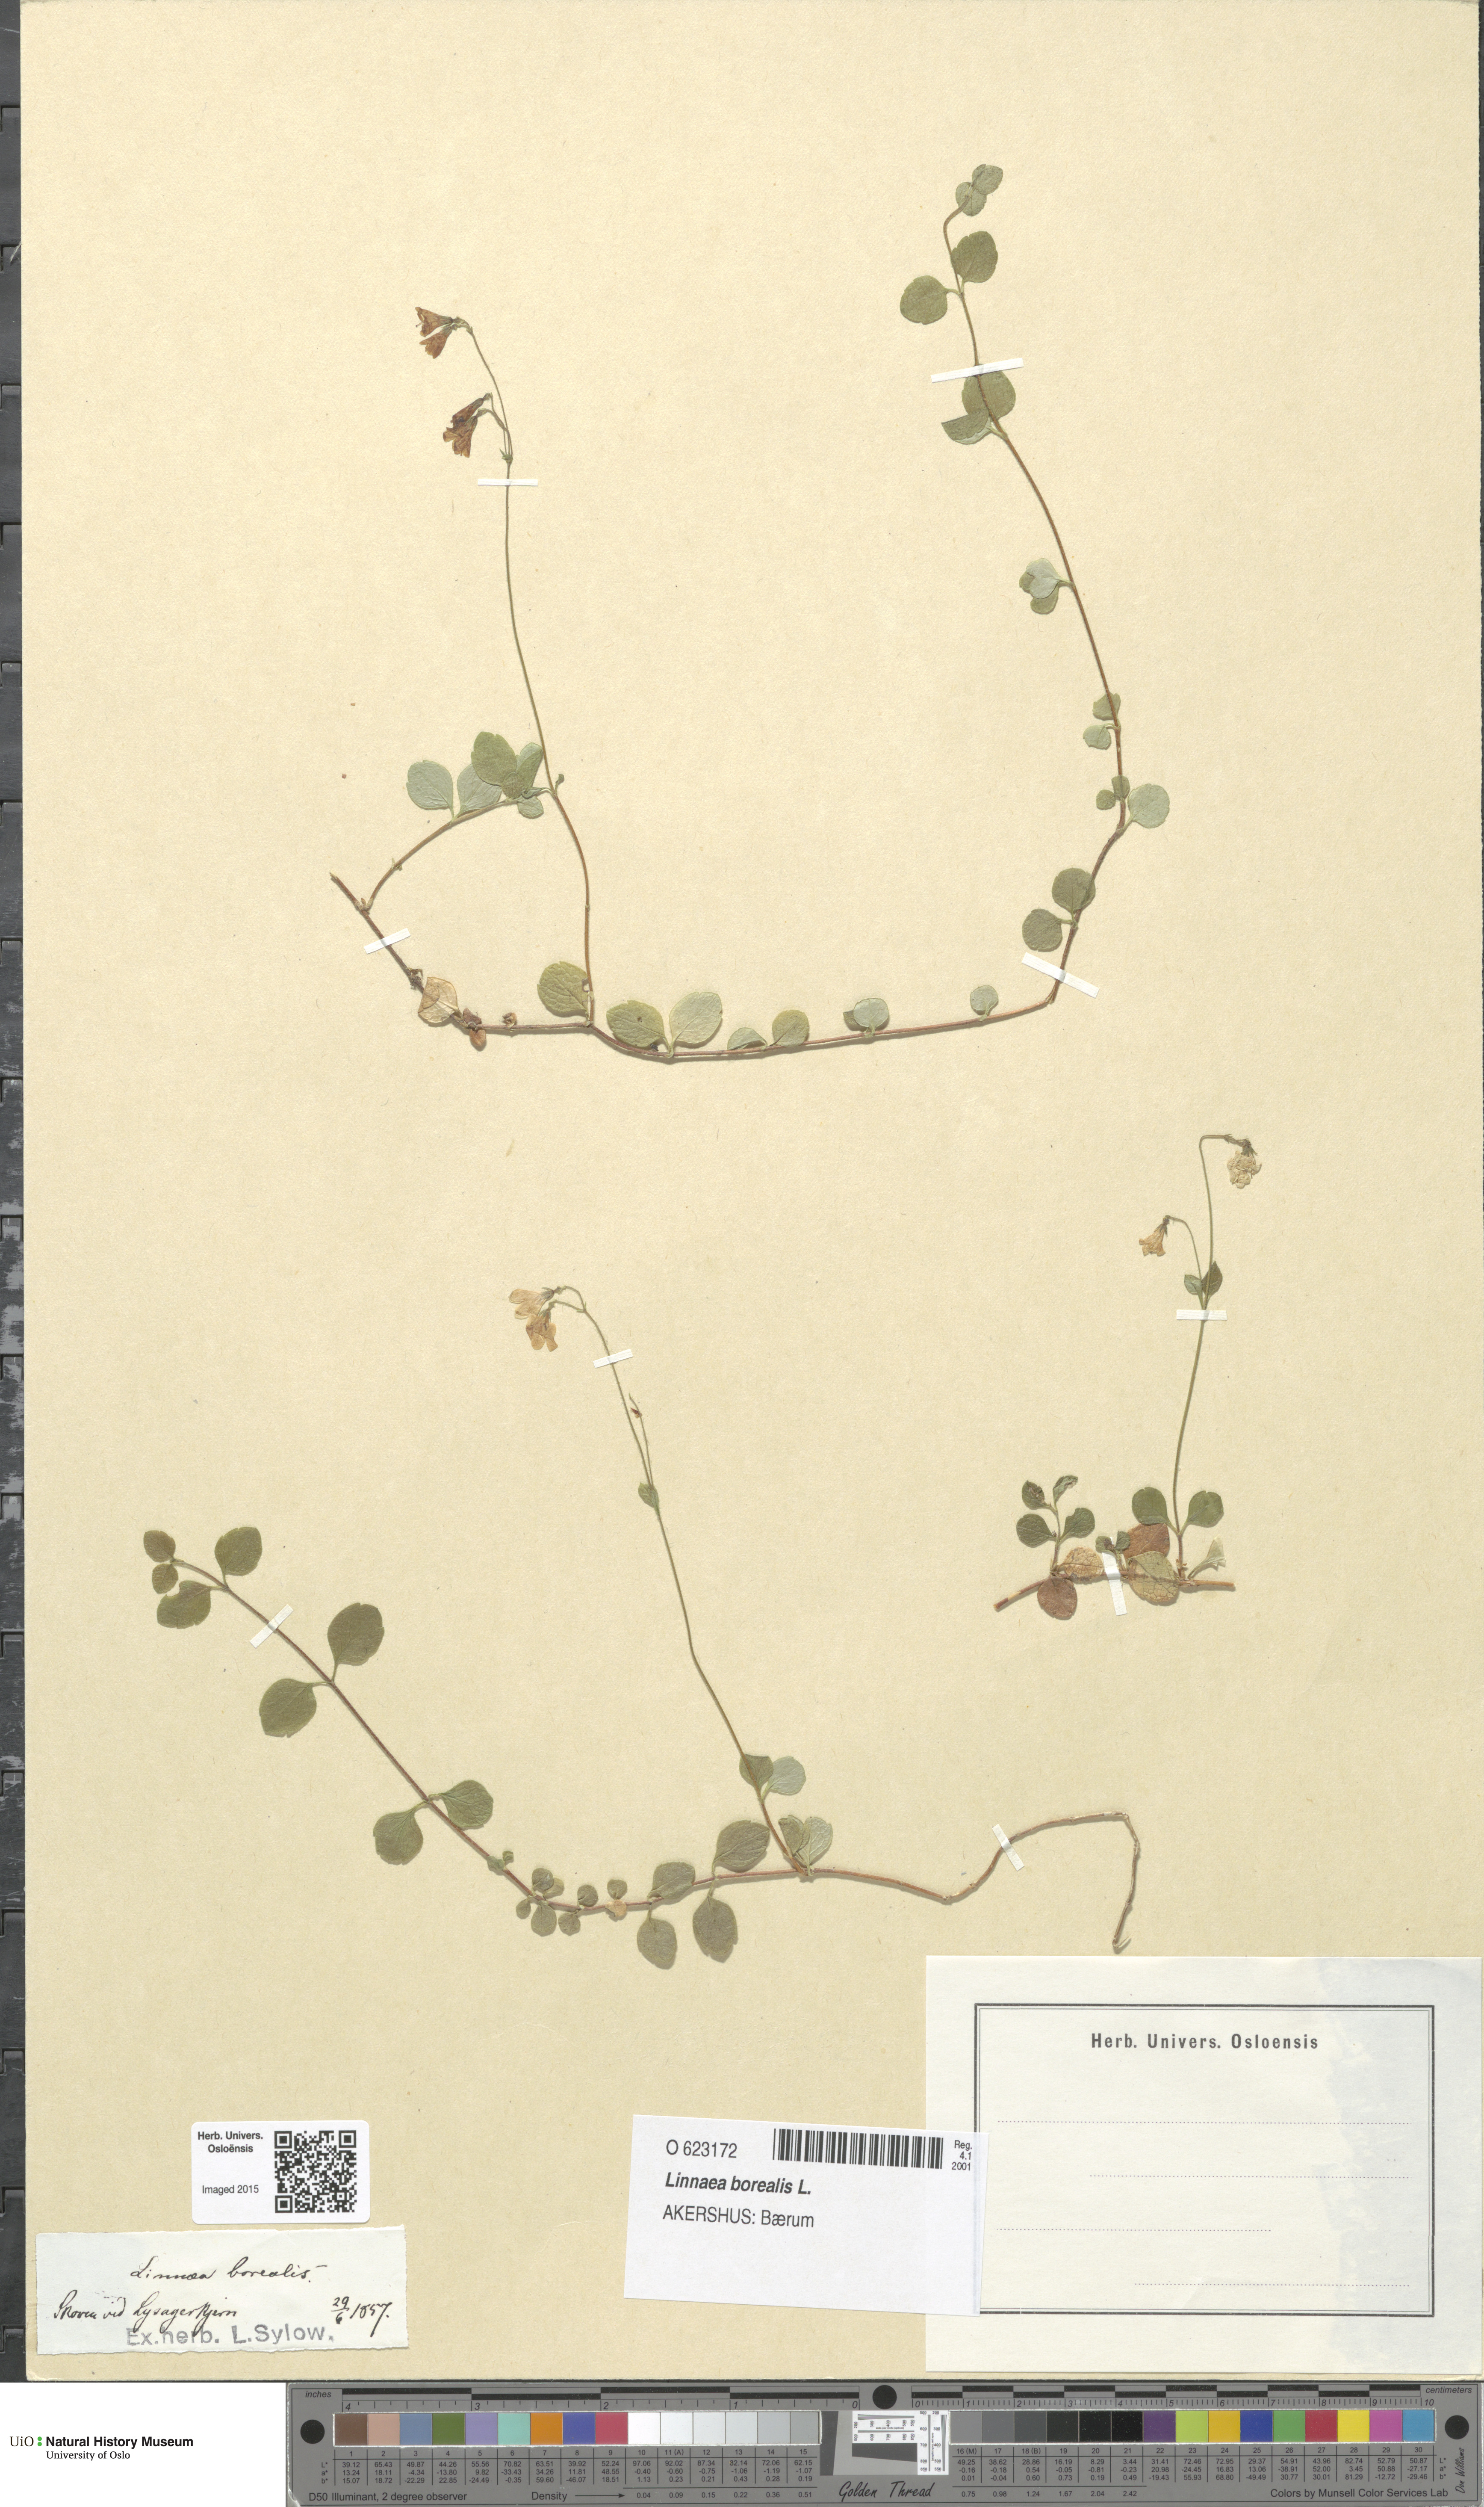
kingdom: Plantae
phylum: Tracheophyta
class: Magnoliopsida
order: Dipsacales
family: Caprifoliaceae
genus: Linnaea
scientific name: Linnaea borealis
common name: Twinflower
